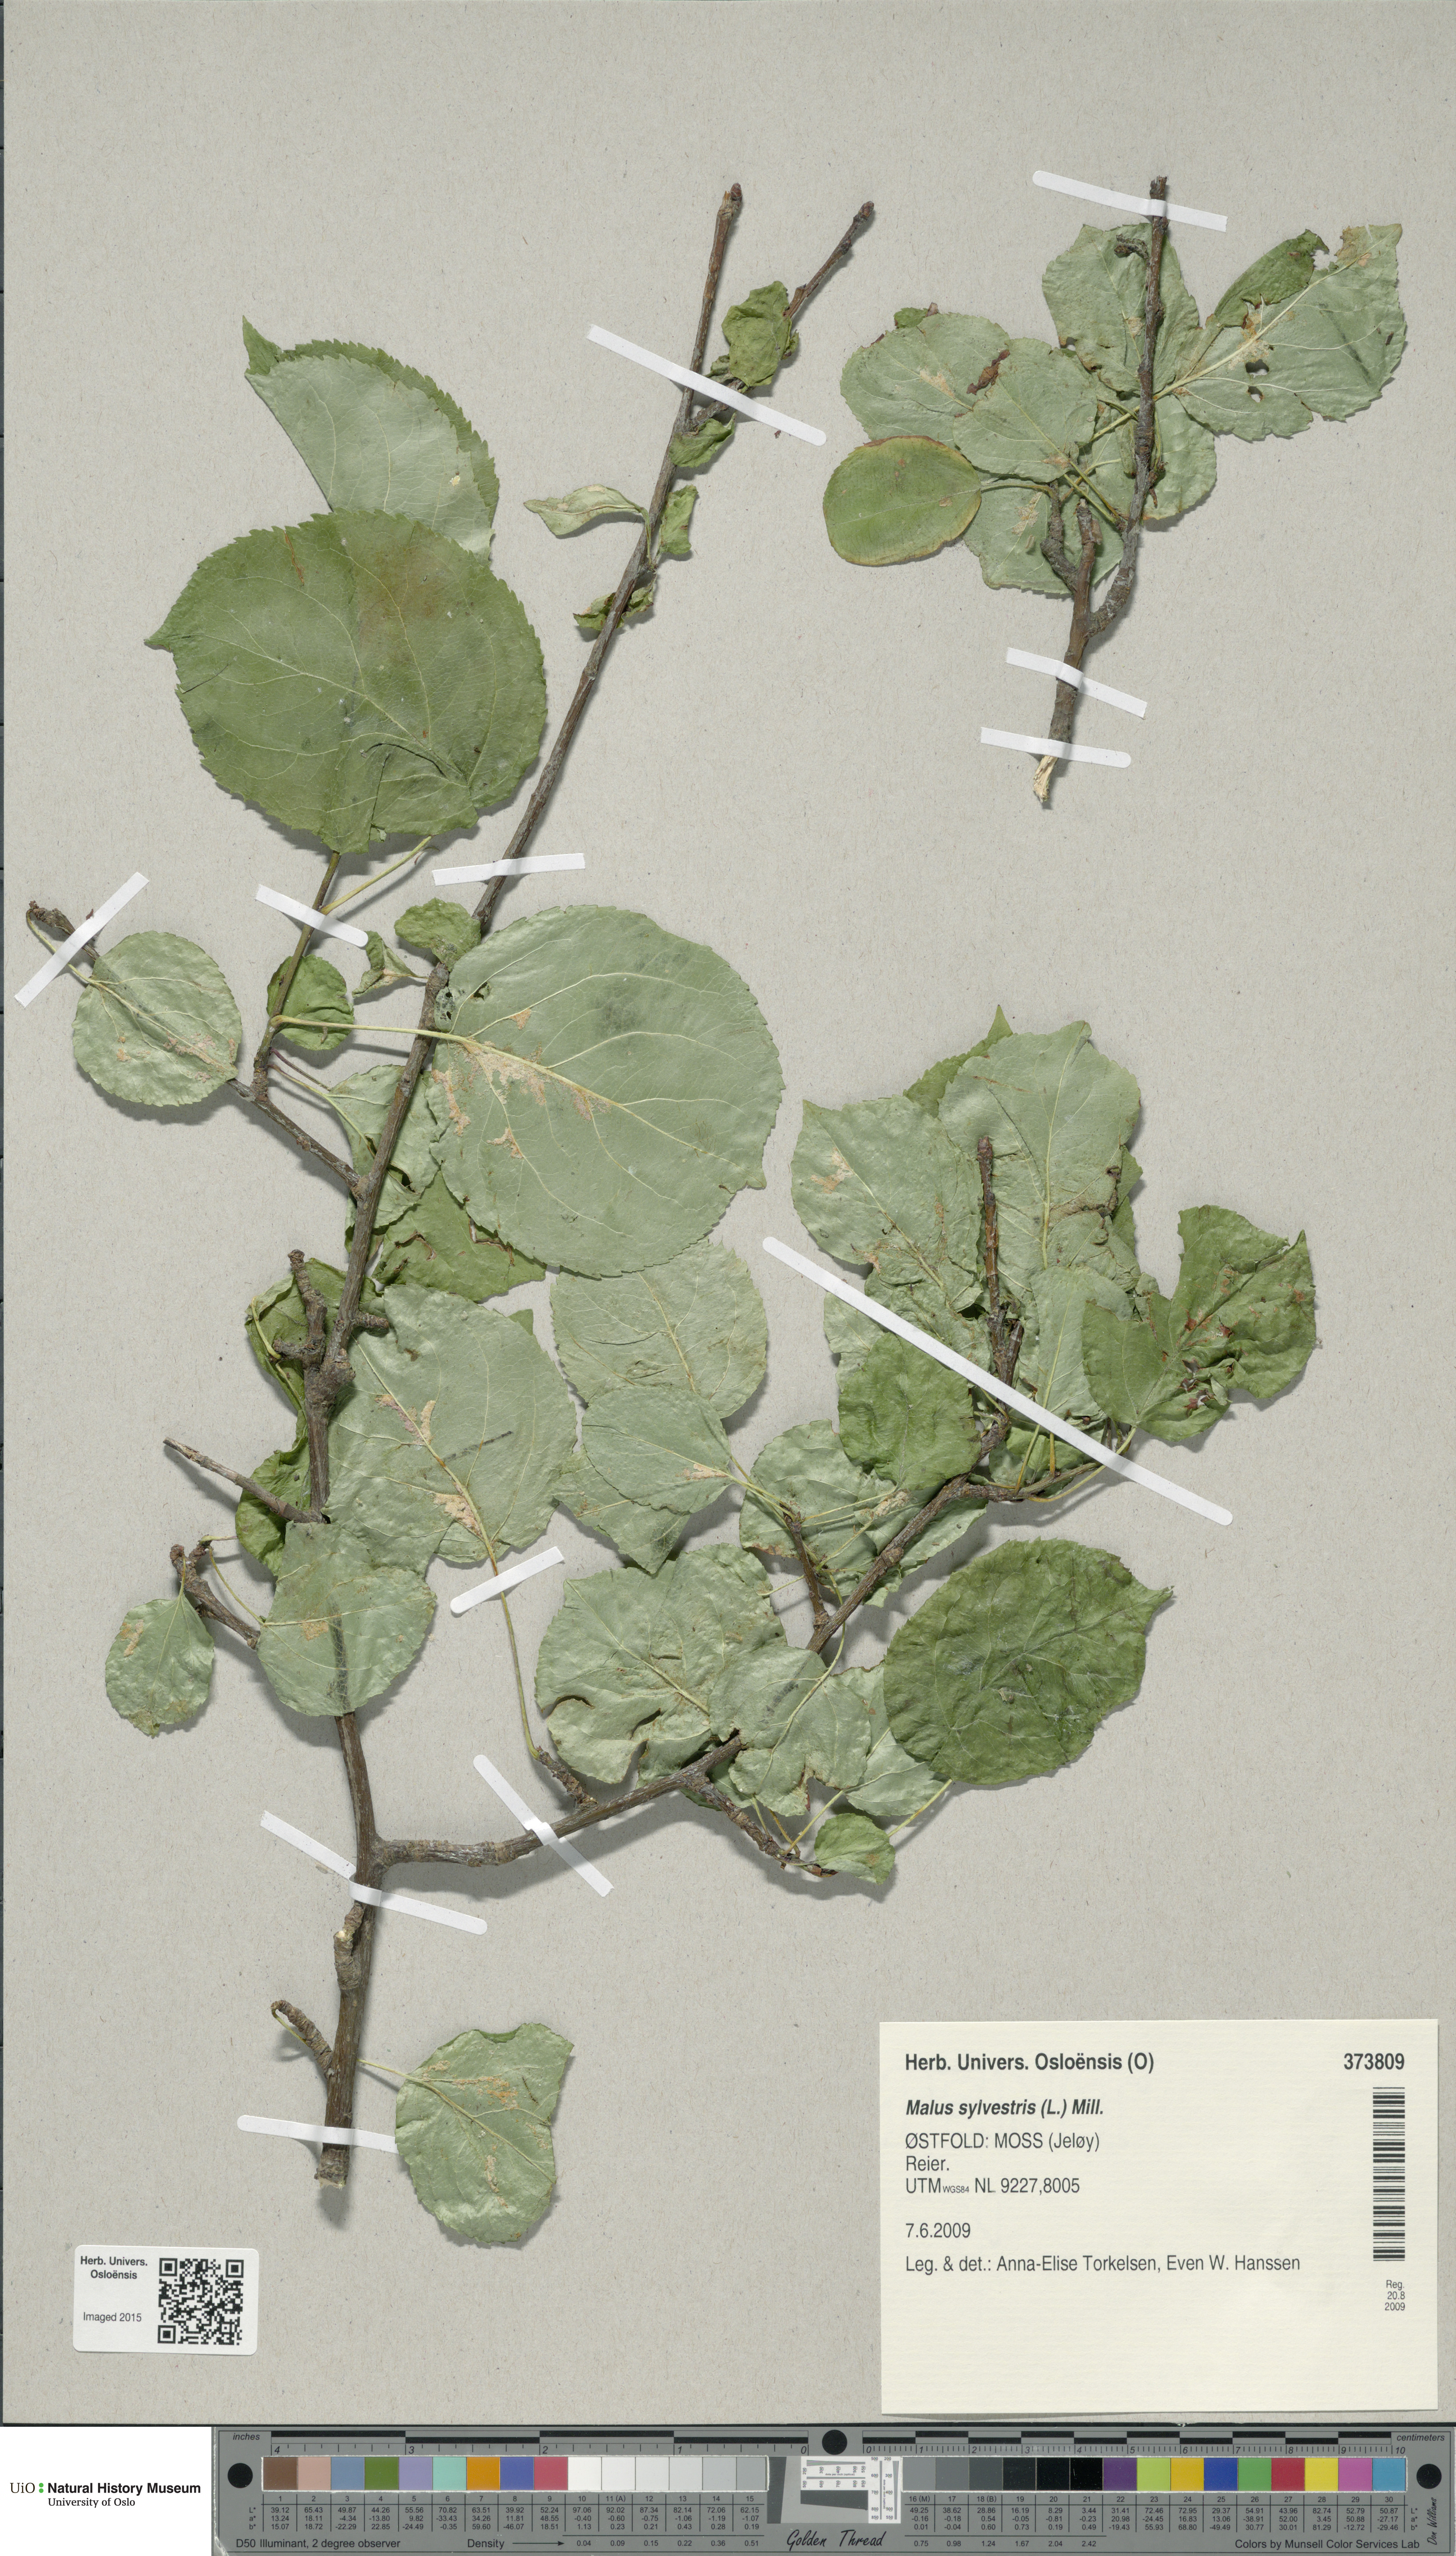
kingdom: Plantae
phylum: Tracheophyta
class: Magnoliopsida
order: Rosales
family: Rosaceae
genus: Malus
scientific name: Malus sylvestris
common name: Crab apple
